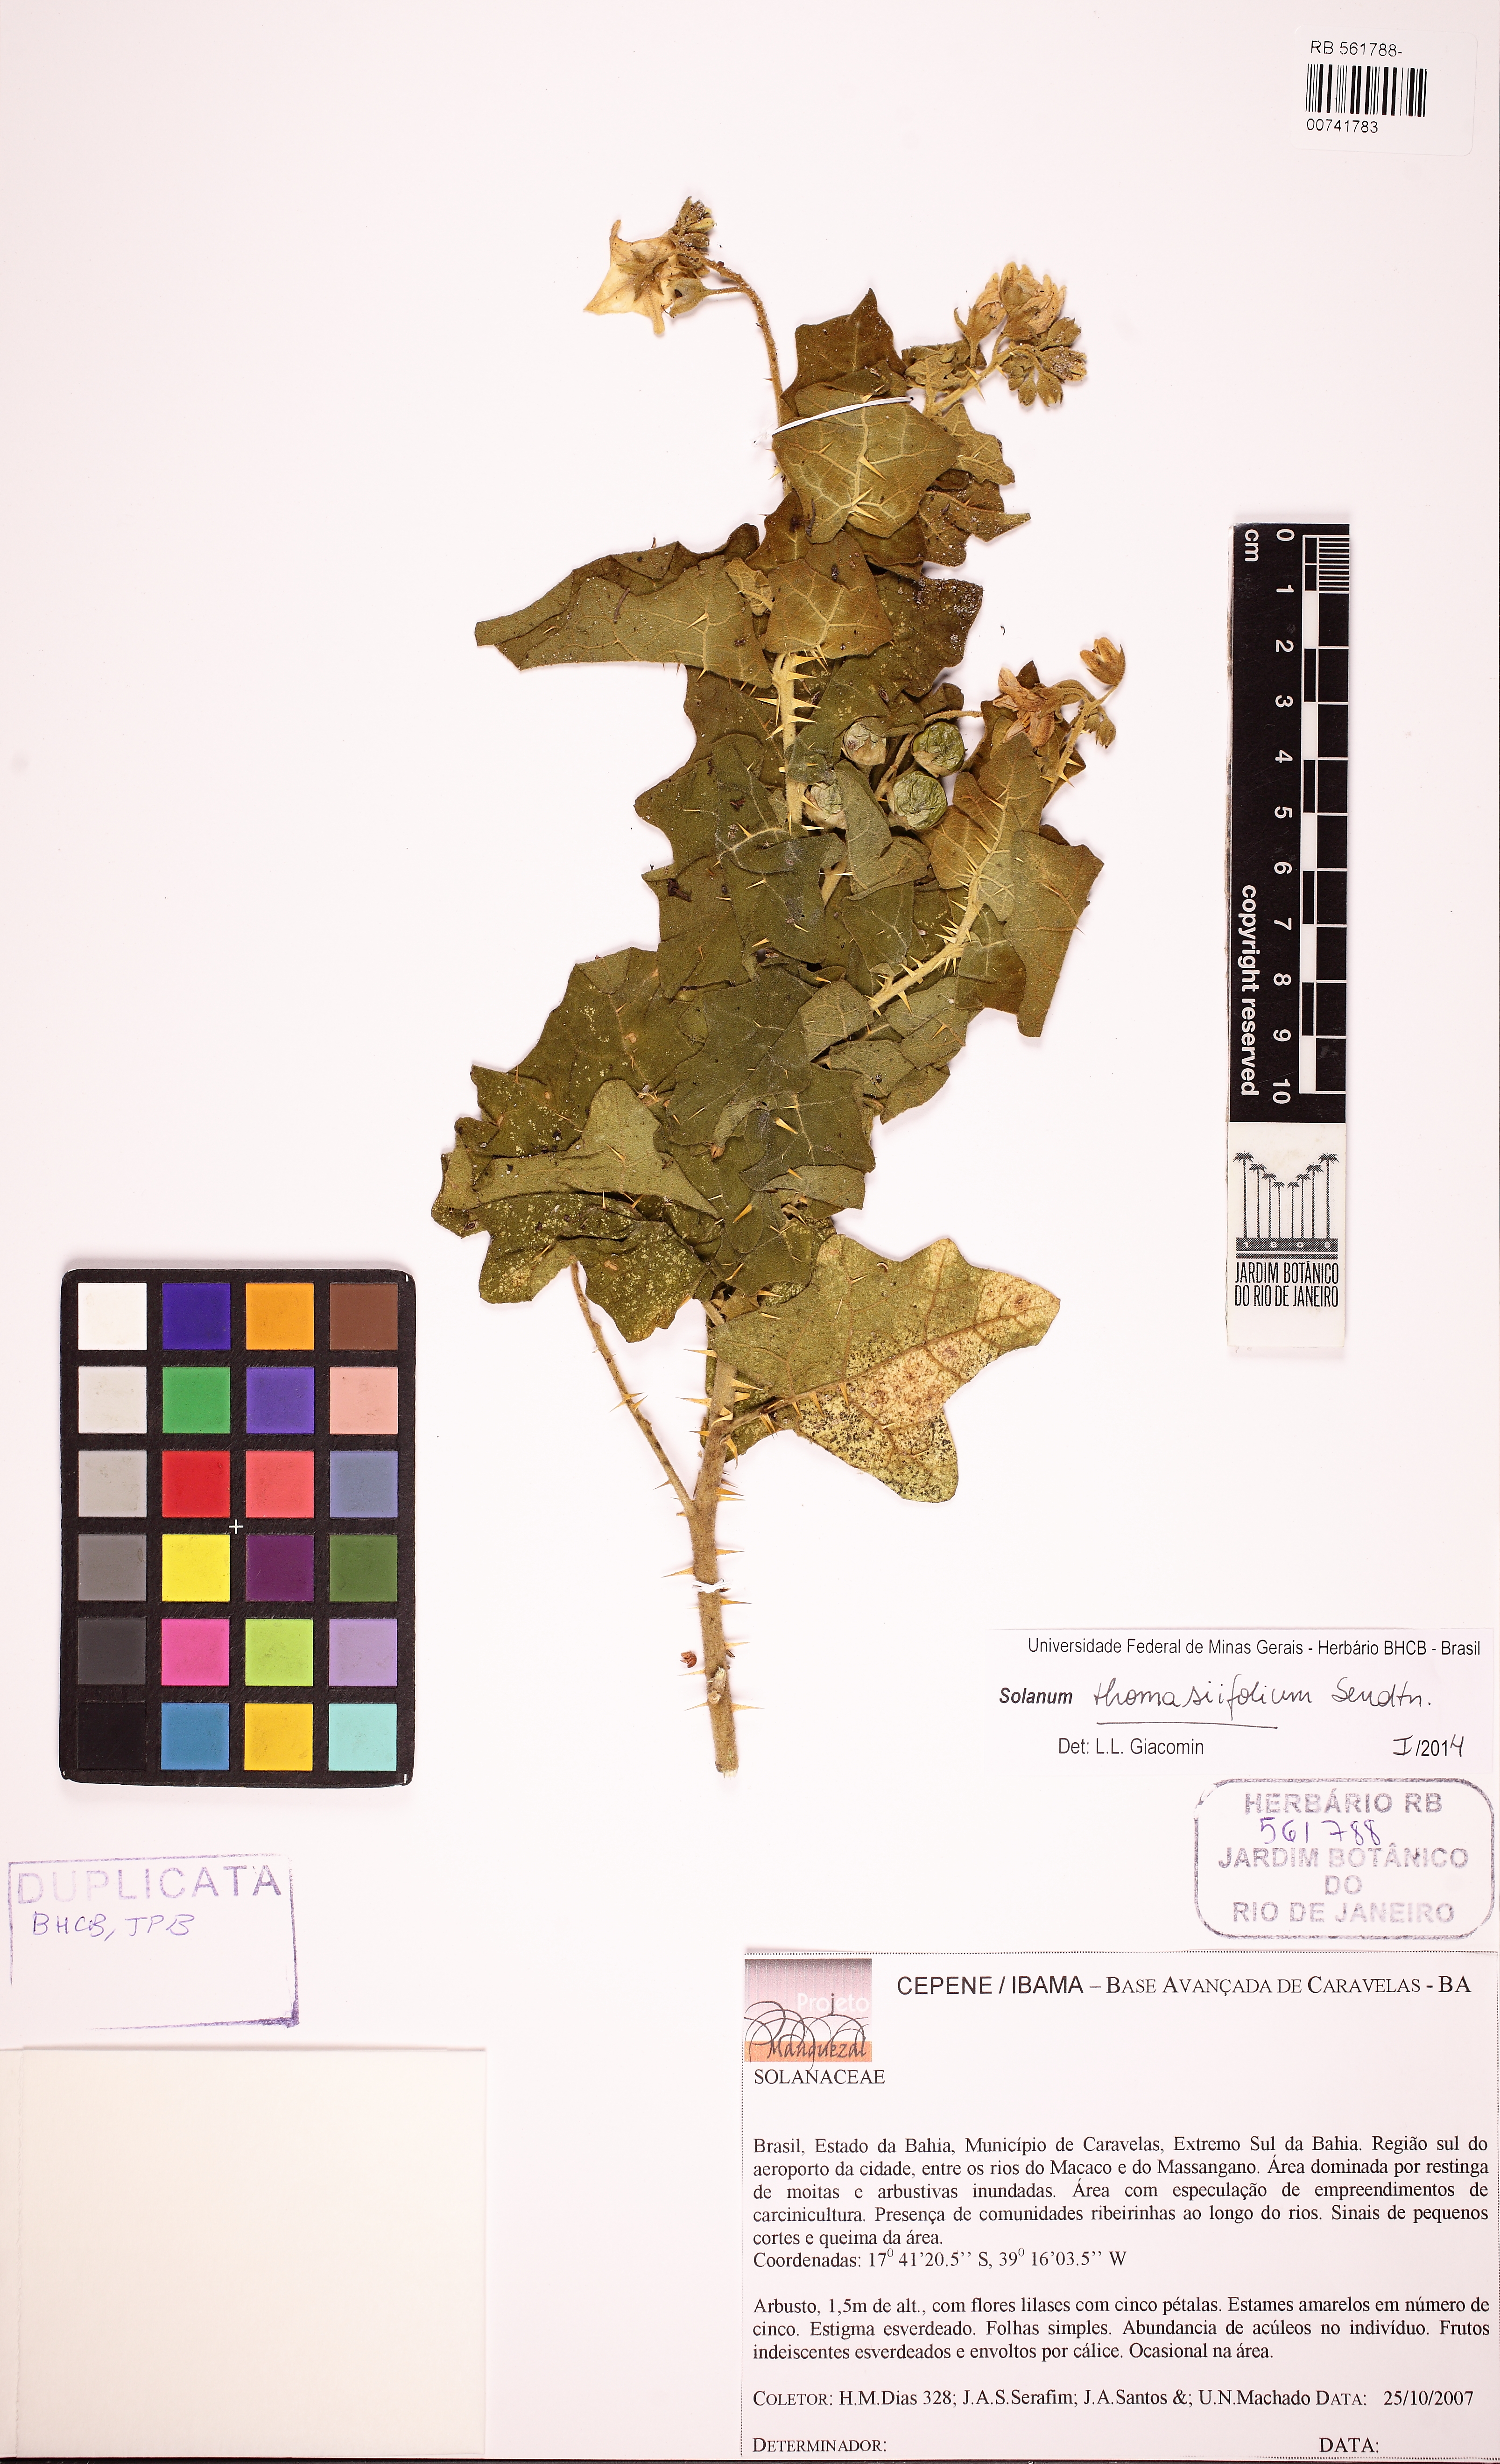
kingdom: Plantae
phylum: Tracheophyta
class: Magnoliopsida
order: Solanales
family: Solanaceae
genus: Solanum
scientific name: Solanum thomasiifolium
